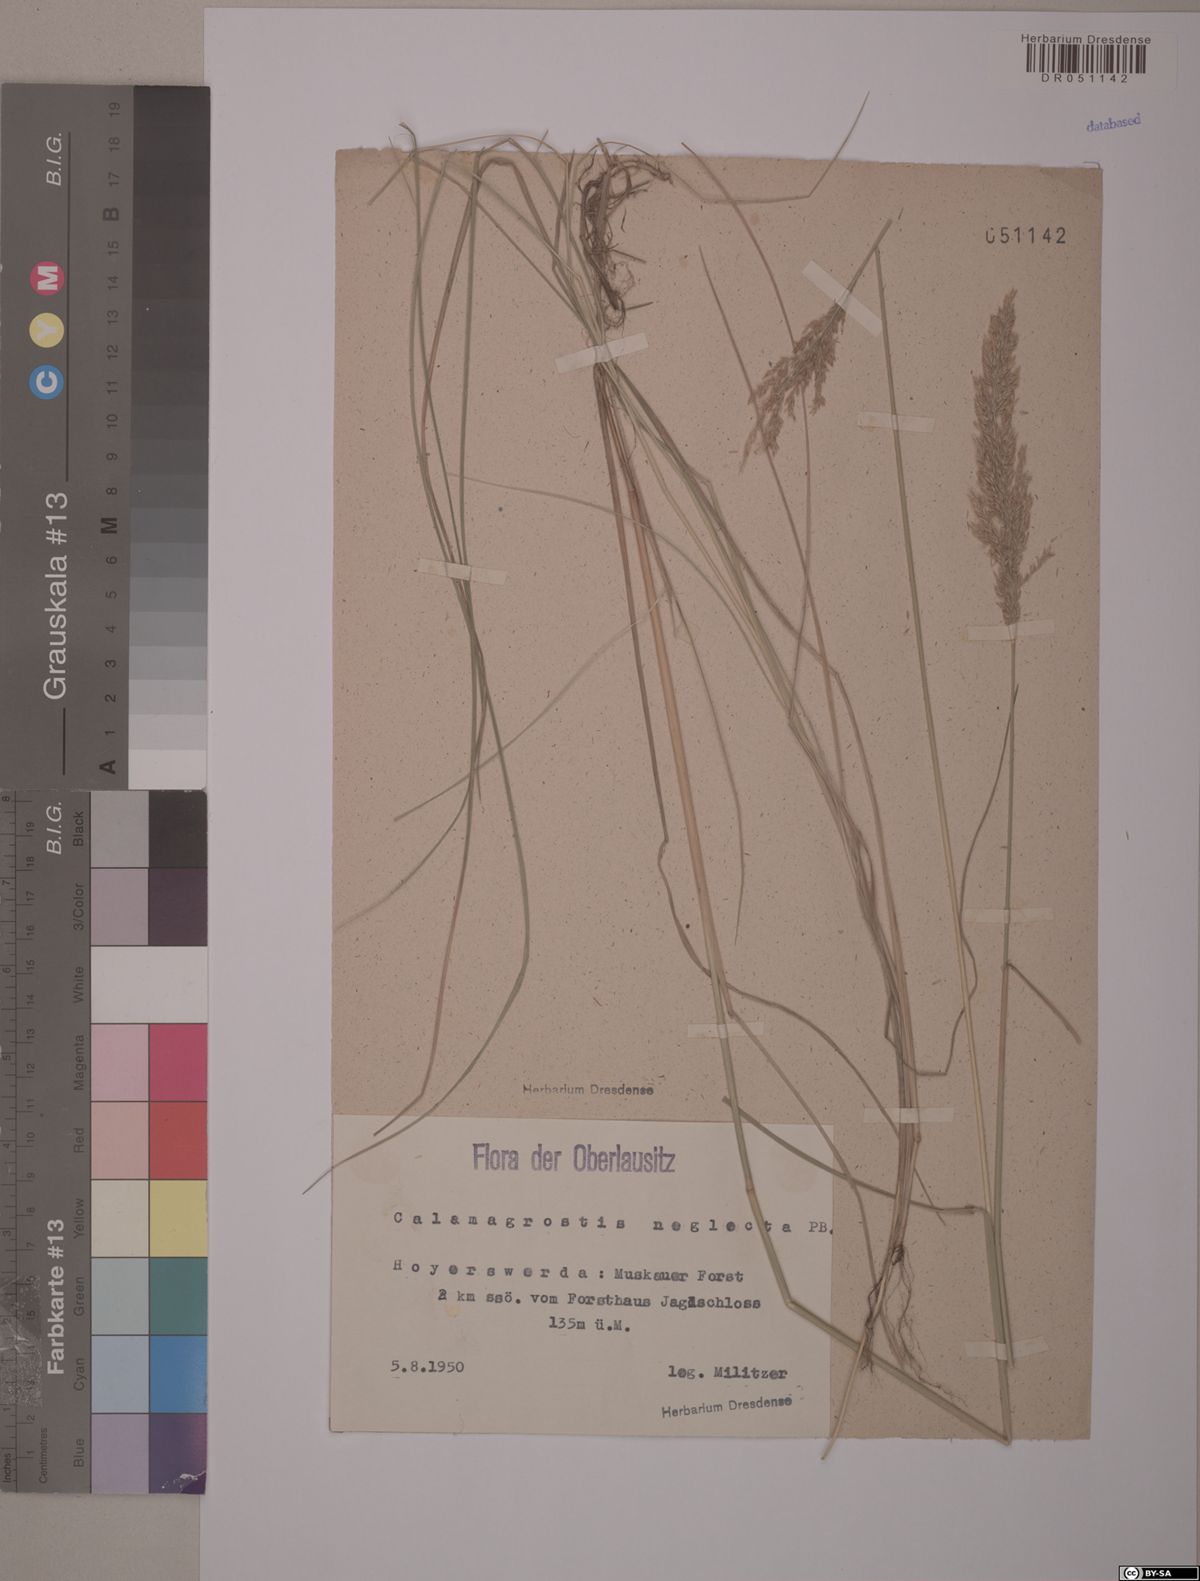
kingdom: Plantae
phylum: Tracheophyta
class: Liliopsida
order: Poales
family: Poaceae
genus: Achnatherum
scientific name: Achnatherum calamagrostis
